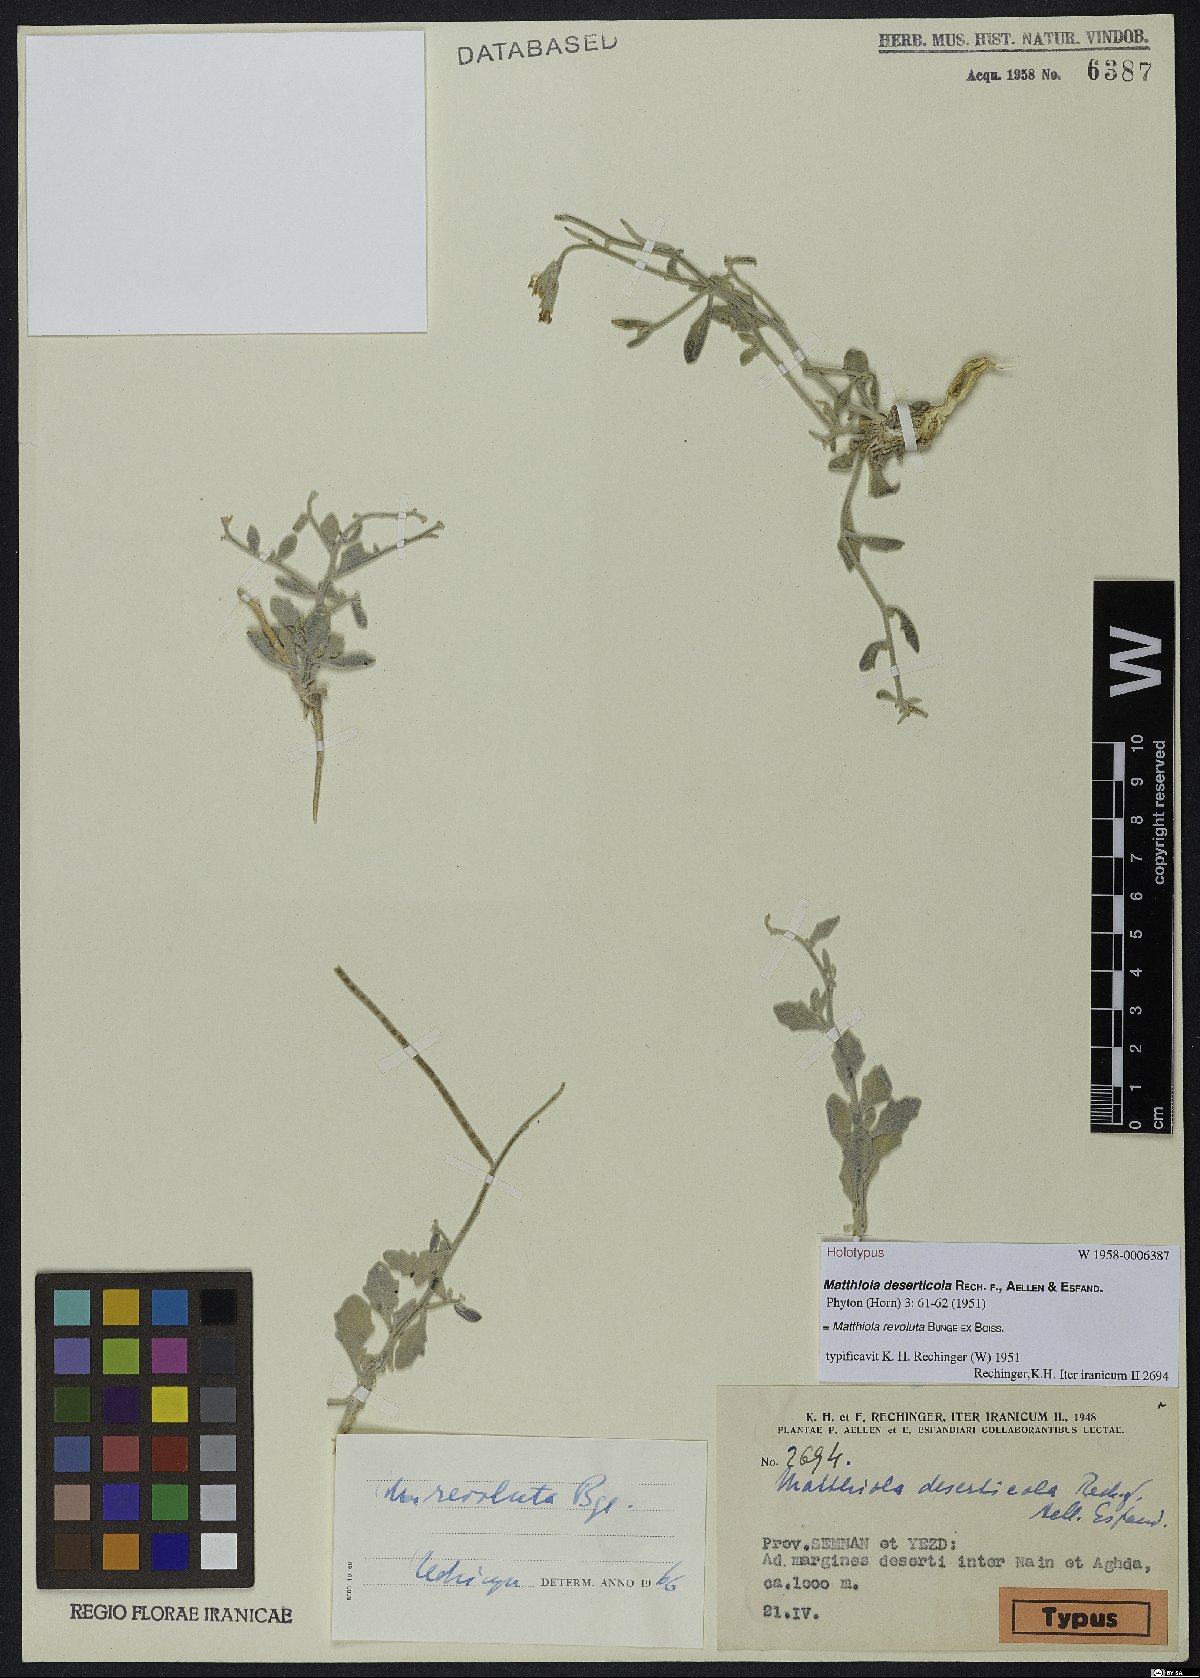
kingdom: Plantae
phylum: Tracheophyta
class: Magnoliopsida
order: Brassicales
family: Brassicaceae
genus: Matthiola
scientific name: Matthiola revoluta
